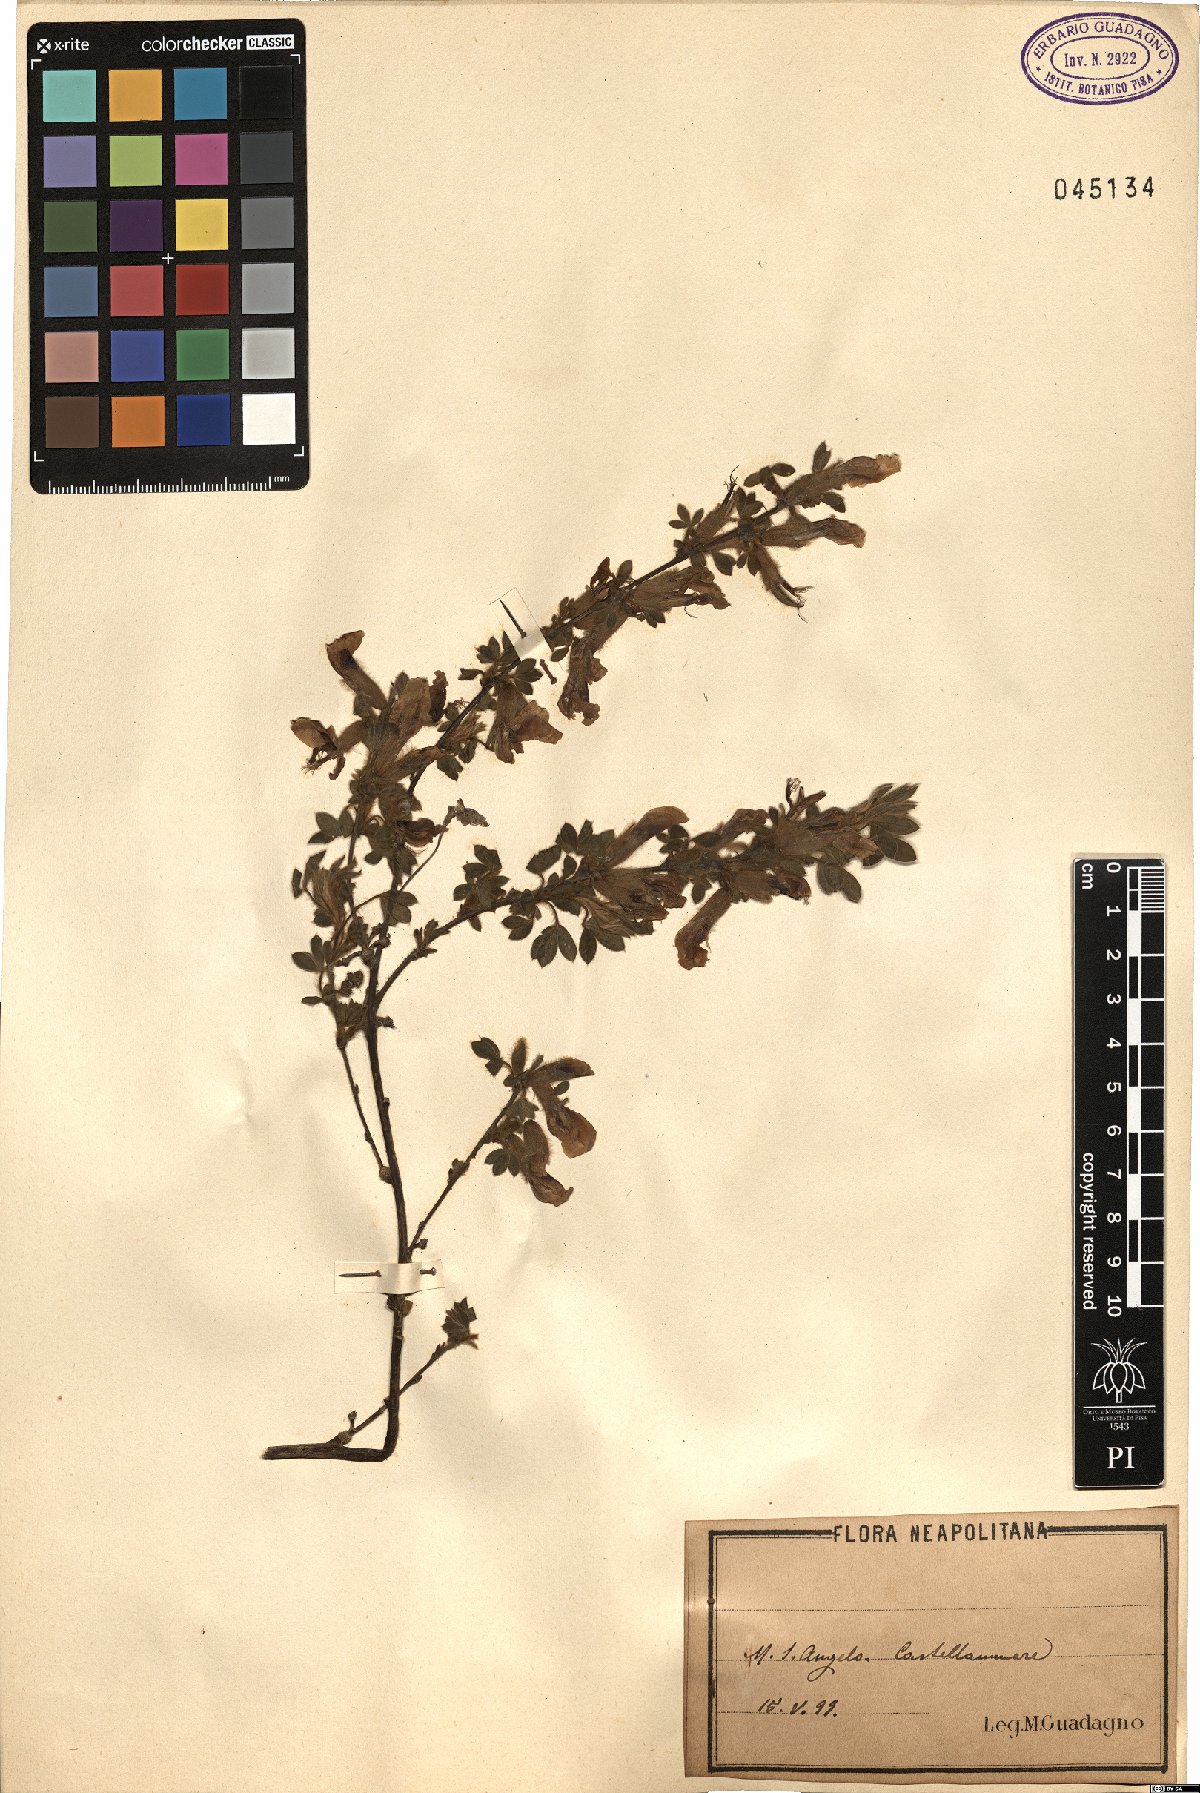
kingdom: Plantae
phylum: Tracheophyta
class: Magnoliopsida
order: Fabales
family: Fabaceae
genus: Cytisus
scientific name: Cytisus
